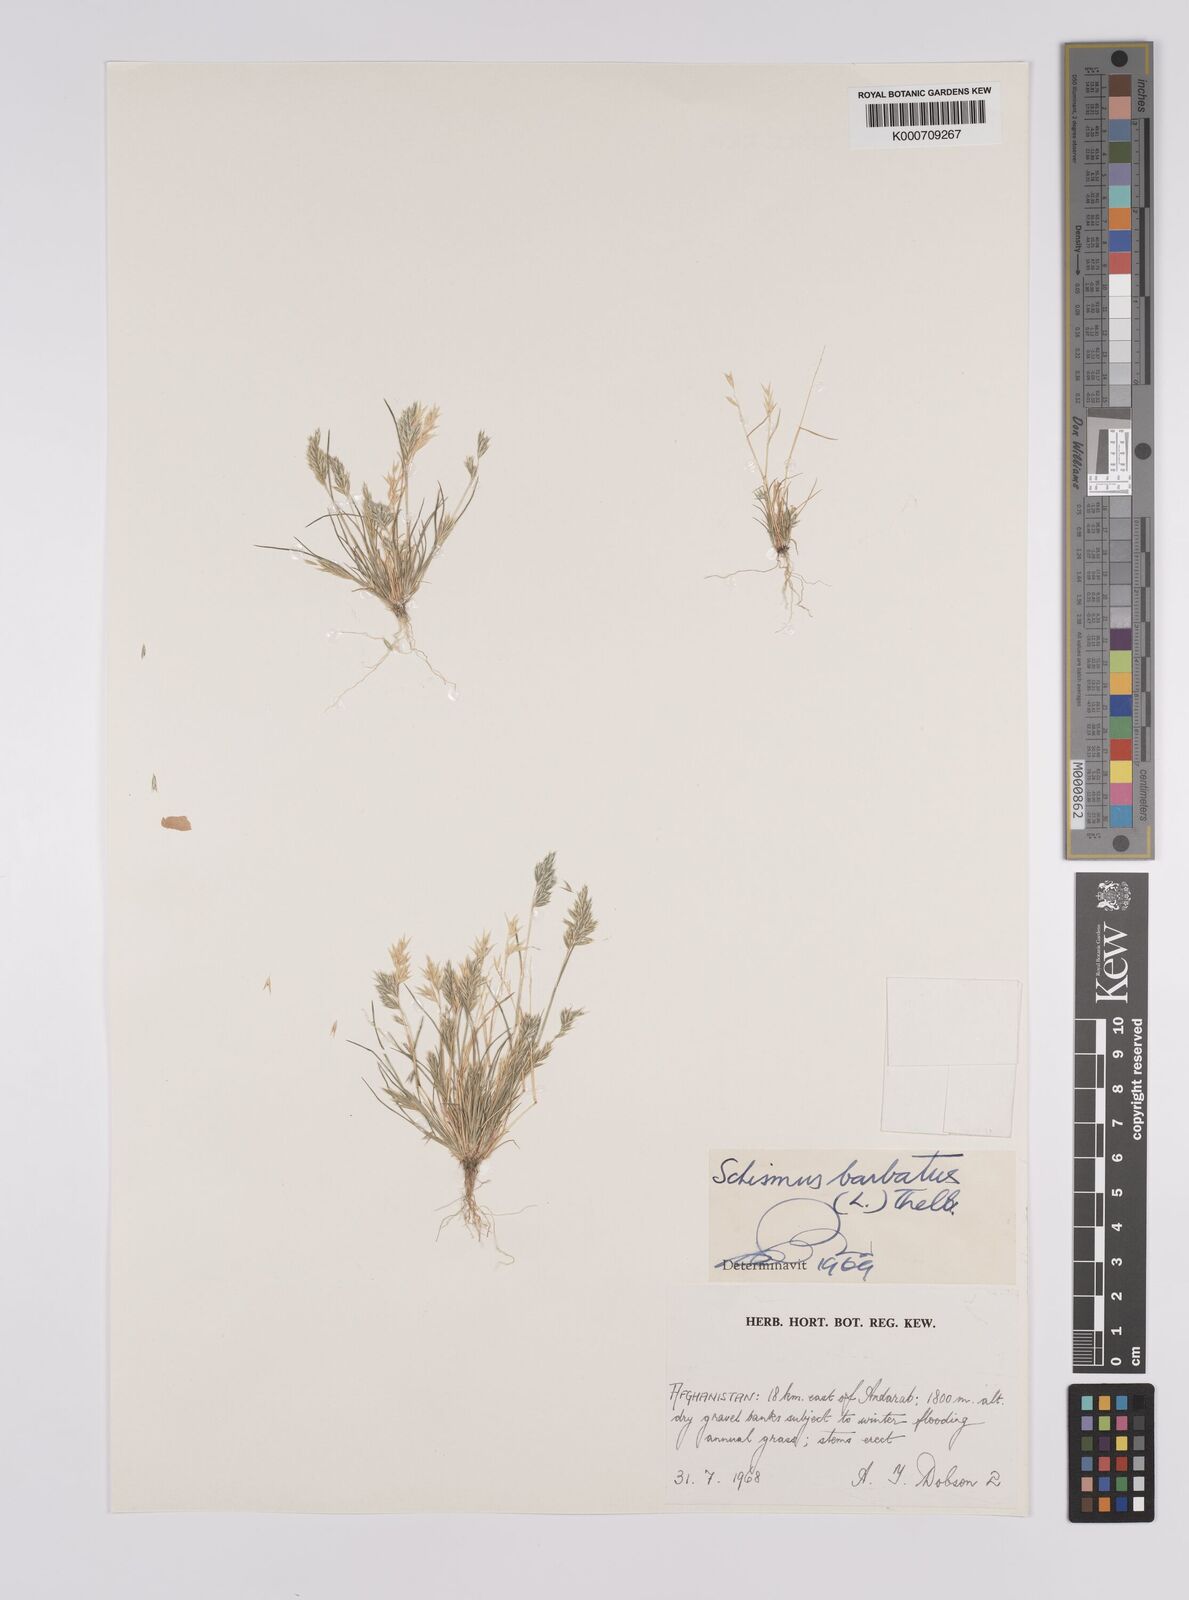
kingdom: Plantae
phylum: Tracheophyta
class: Liliopsida
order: Poales
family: Poaceae
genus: Schismus
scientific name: Schismus barbatus
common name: Kelch-grass
